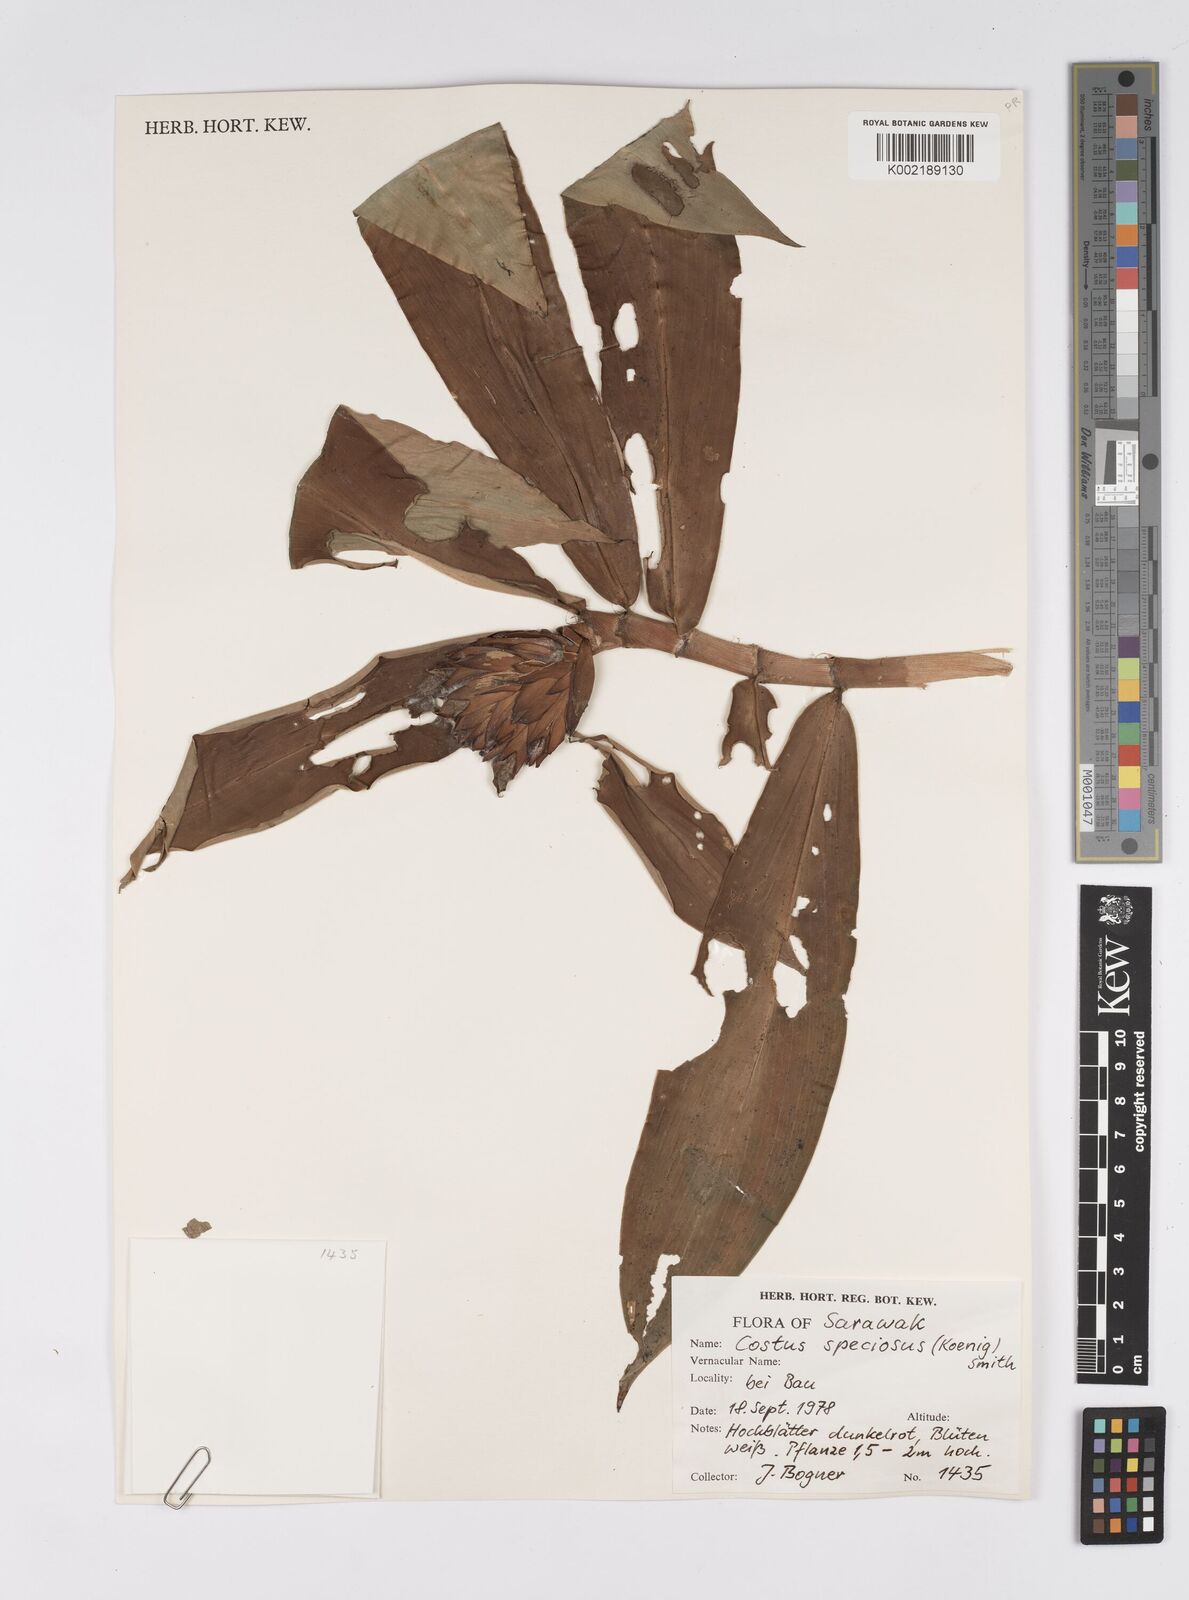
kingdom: Plantae
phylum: Tracheophyta
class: Liliopsida
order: Zingiberales
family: Costaceae
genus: Hellenia
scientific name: Hellenia speciosa
